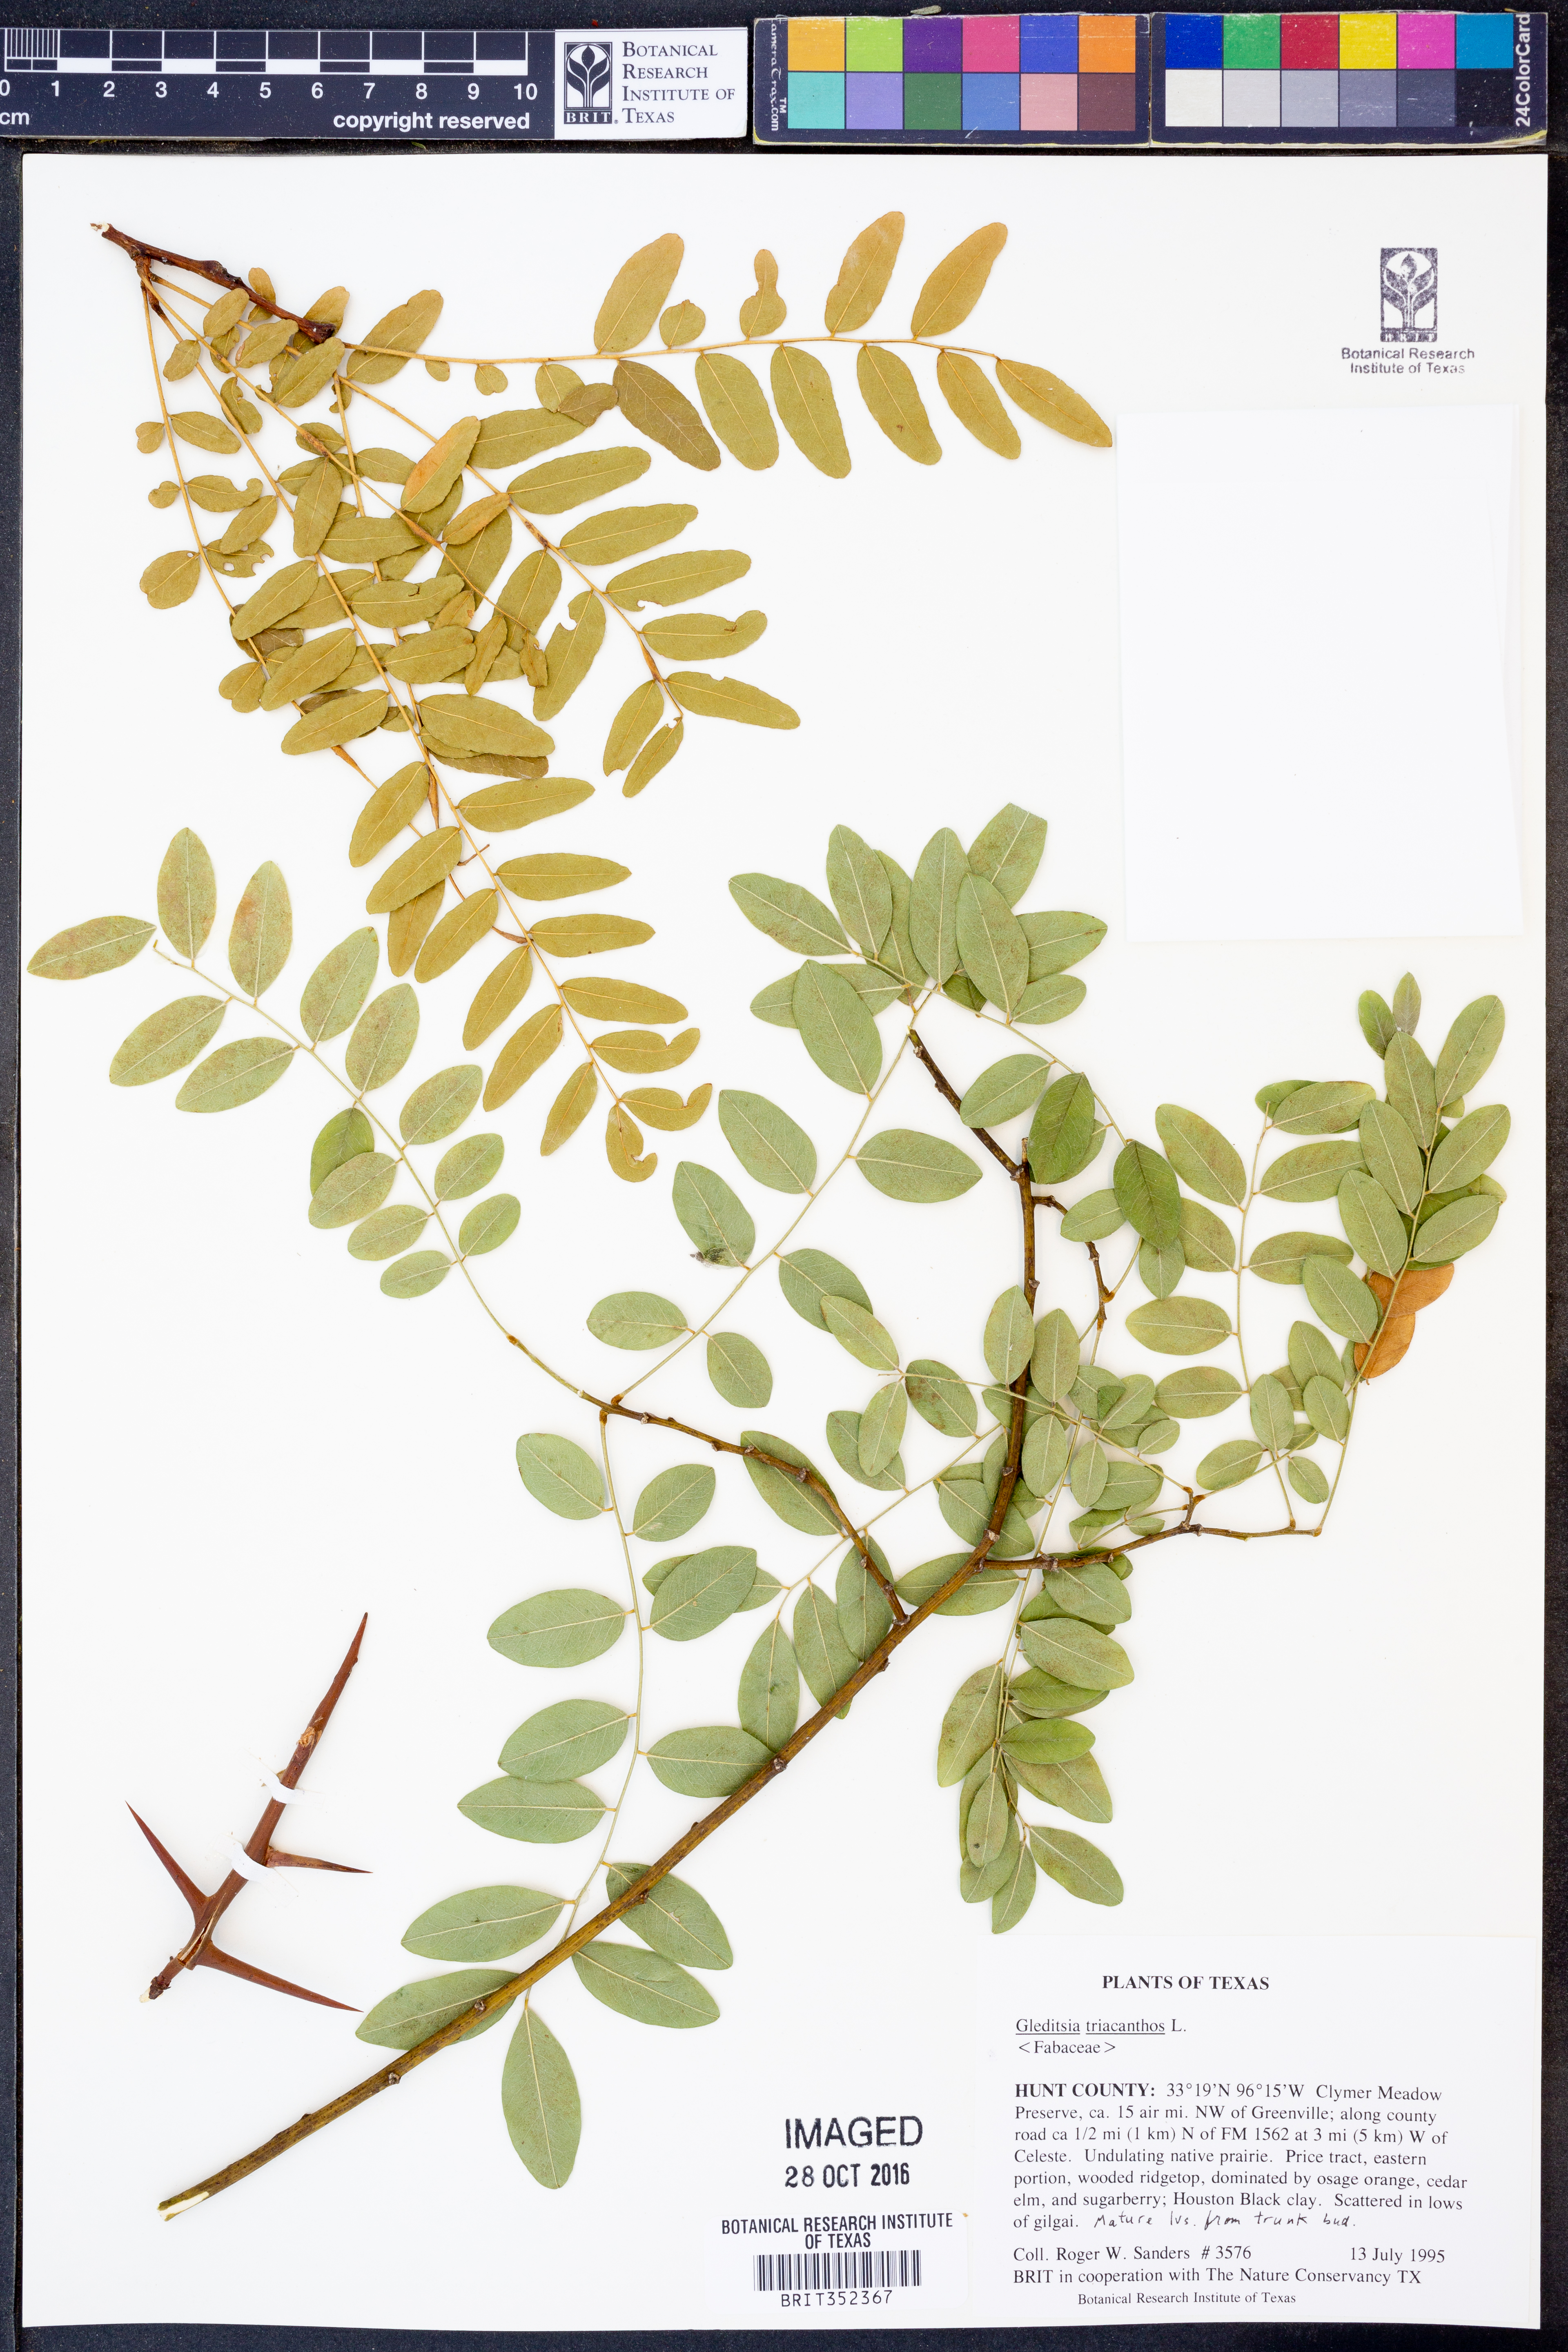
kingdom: Plantae
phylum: Tracheophyta
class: Magnoliopsida
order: Fabales
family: Fabaceae
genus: Gleditsia
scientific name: Gleditsia triacanthos
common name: Common honeylocust
